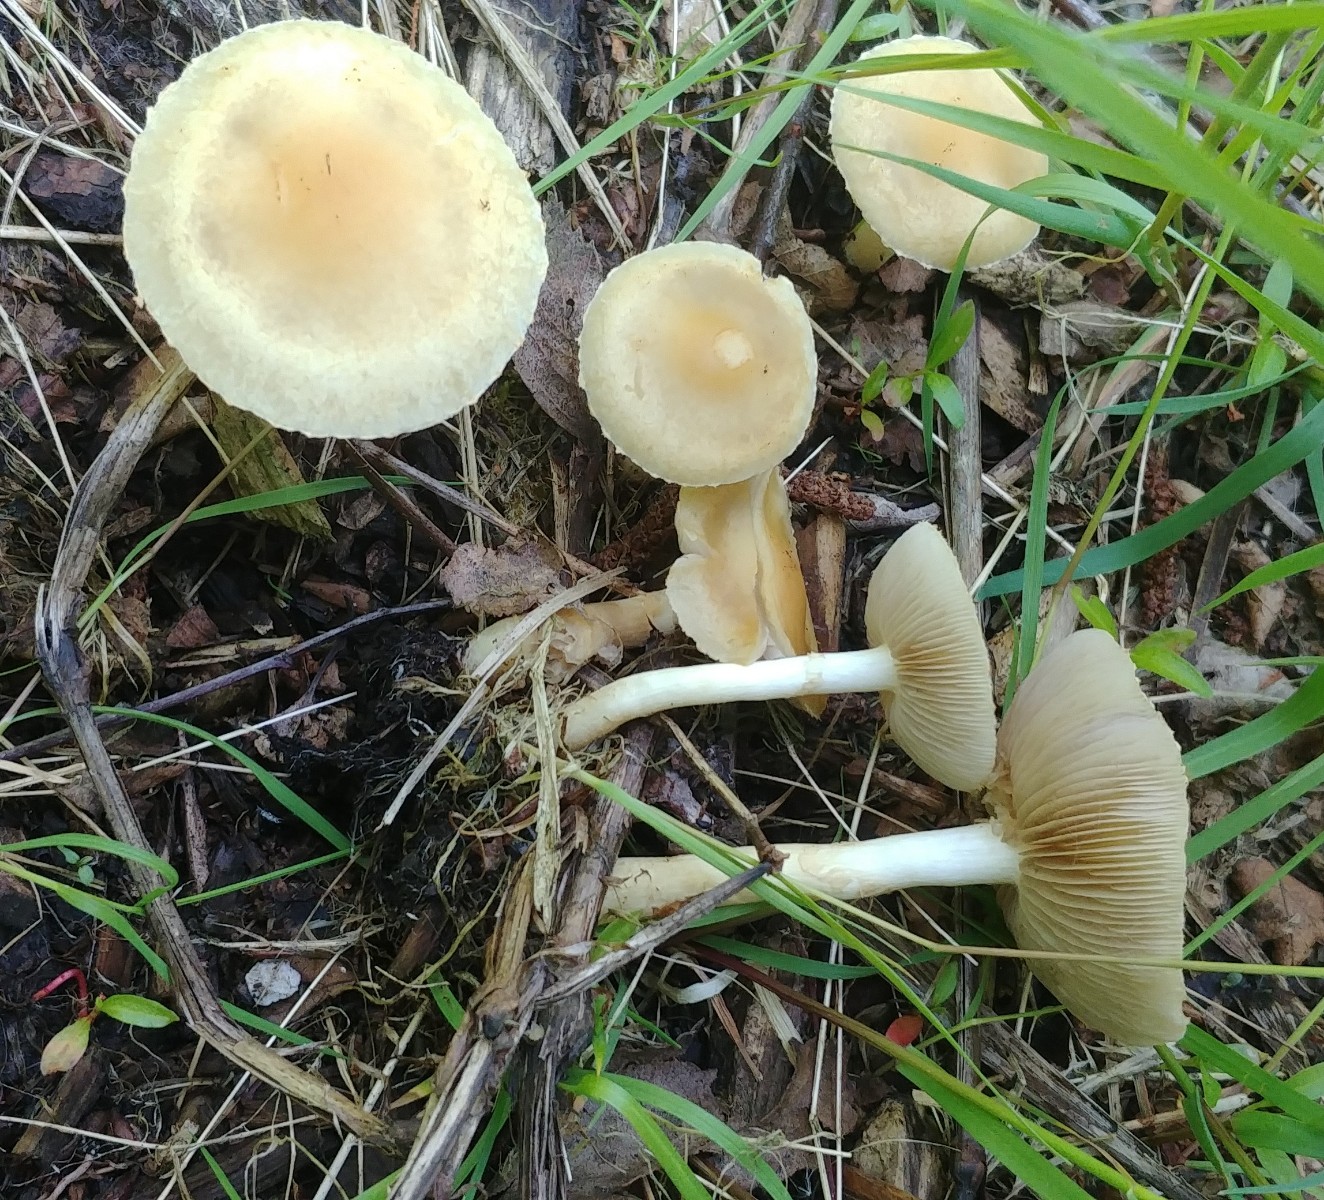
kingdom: Fungi
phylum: Basidiomycota
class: Agaricomycetes
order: Agaricales
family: Strophariaceae
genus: Agrocybe
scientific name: Agrocybe praecox
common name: tidlig agerhat
